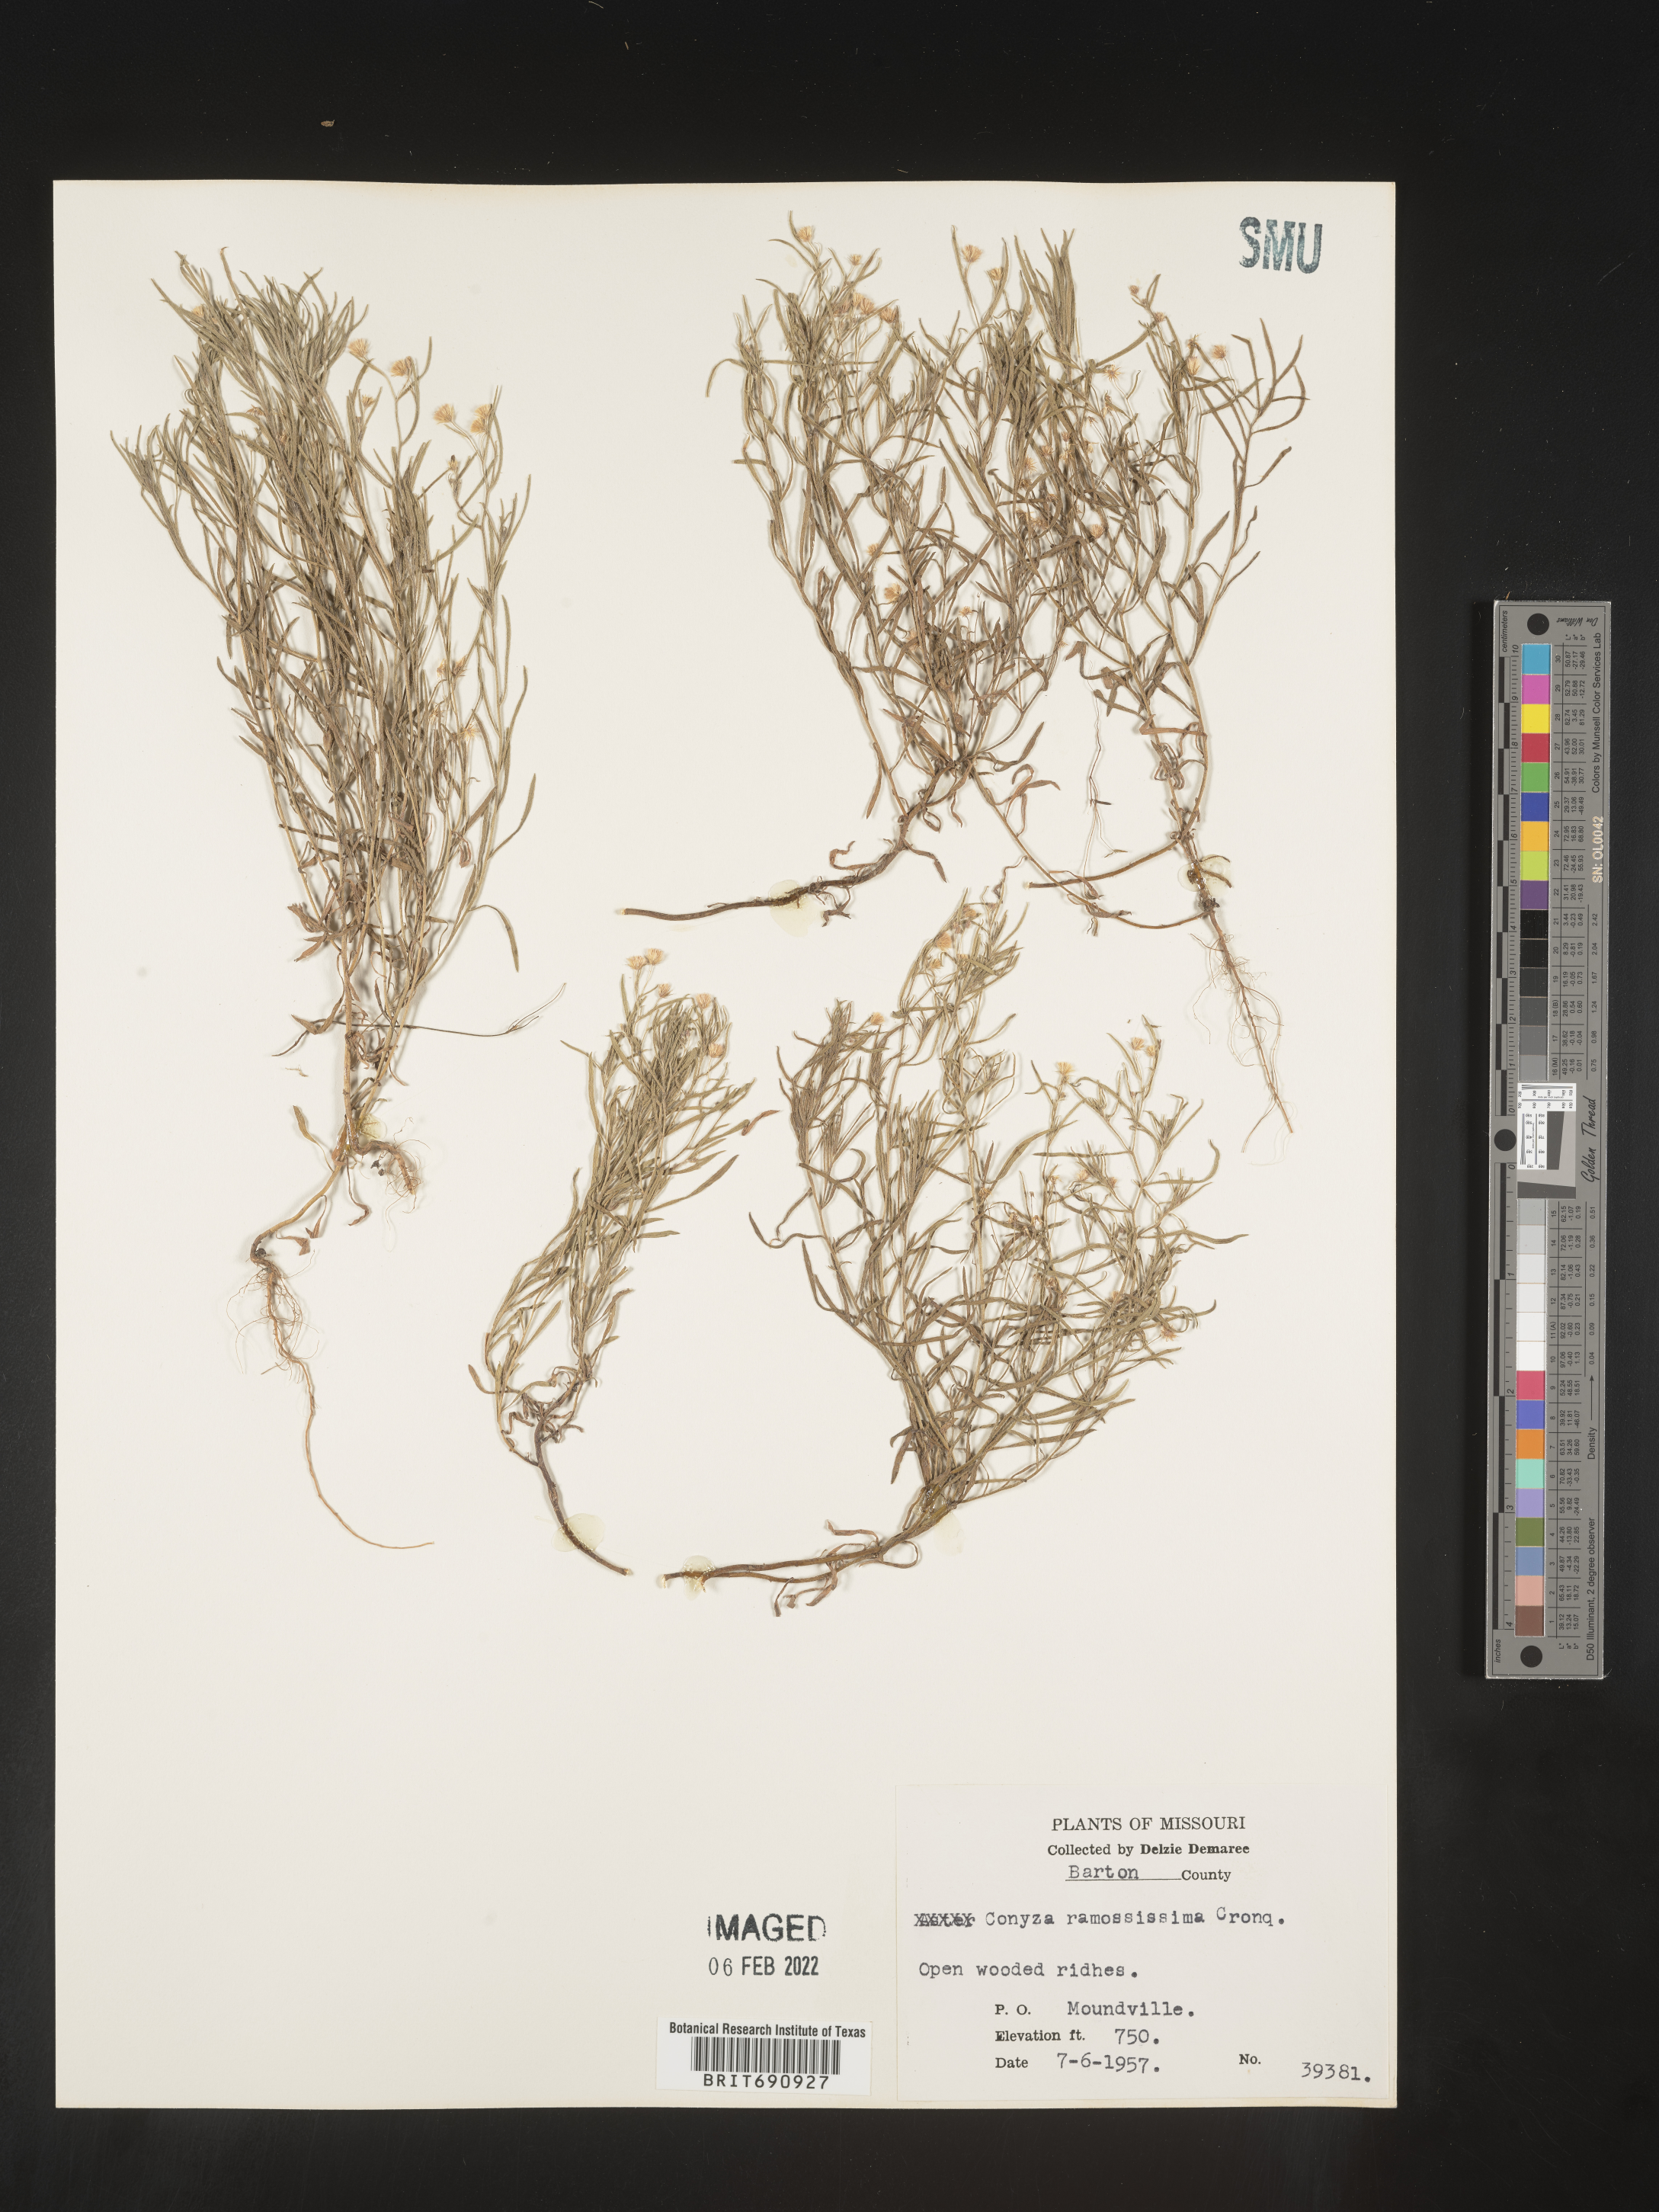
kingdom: Plantae
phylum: Tracheophyta
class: Magnoliopsida
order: Asterales
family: Asteraceae
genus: Erigeron
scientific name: Erigeron divaricatus
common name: Dwarf conyza
